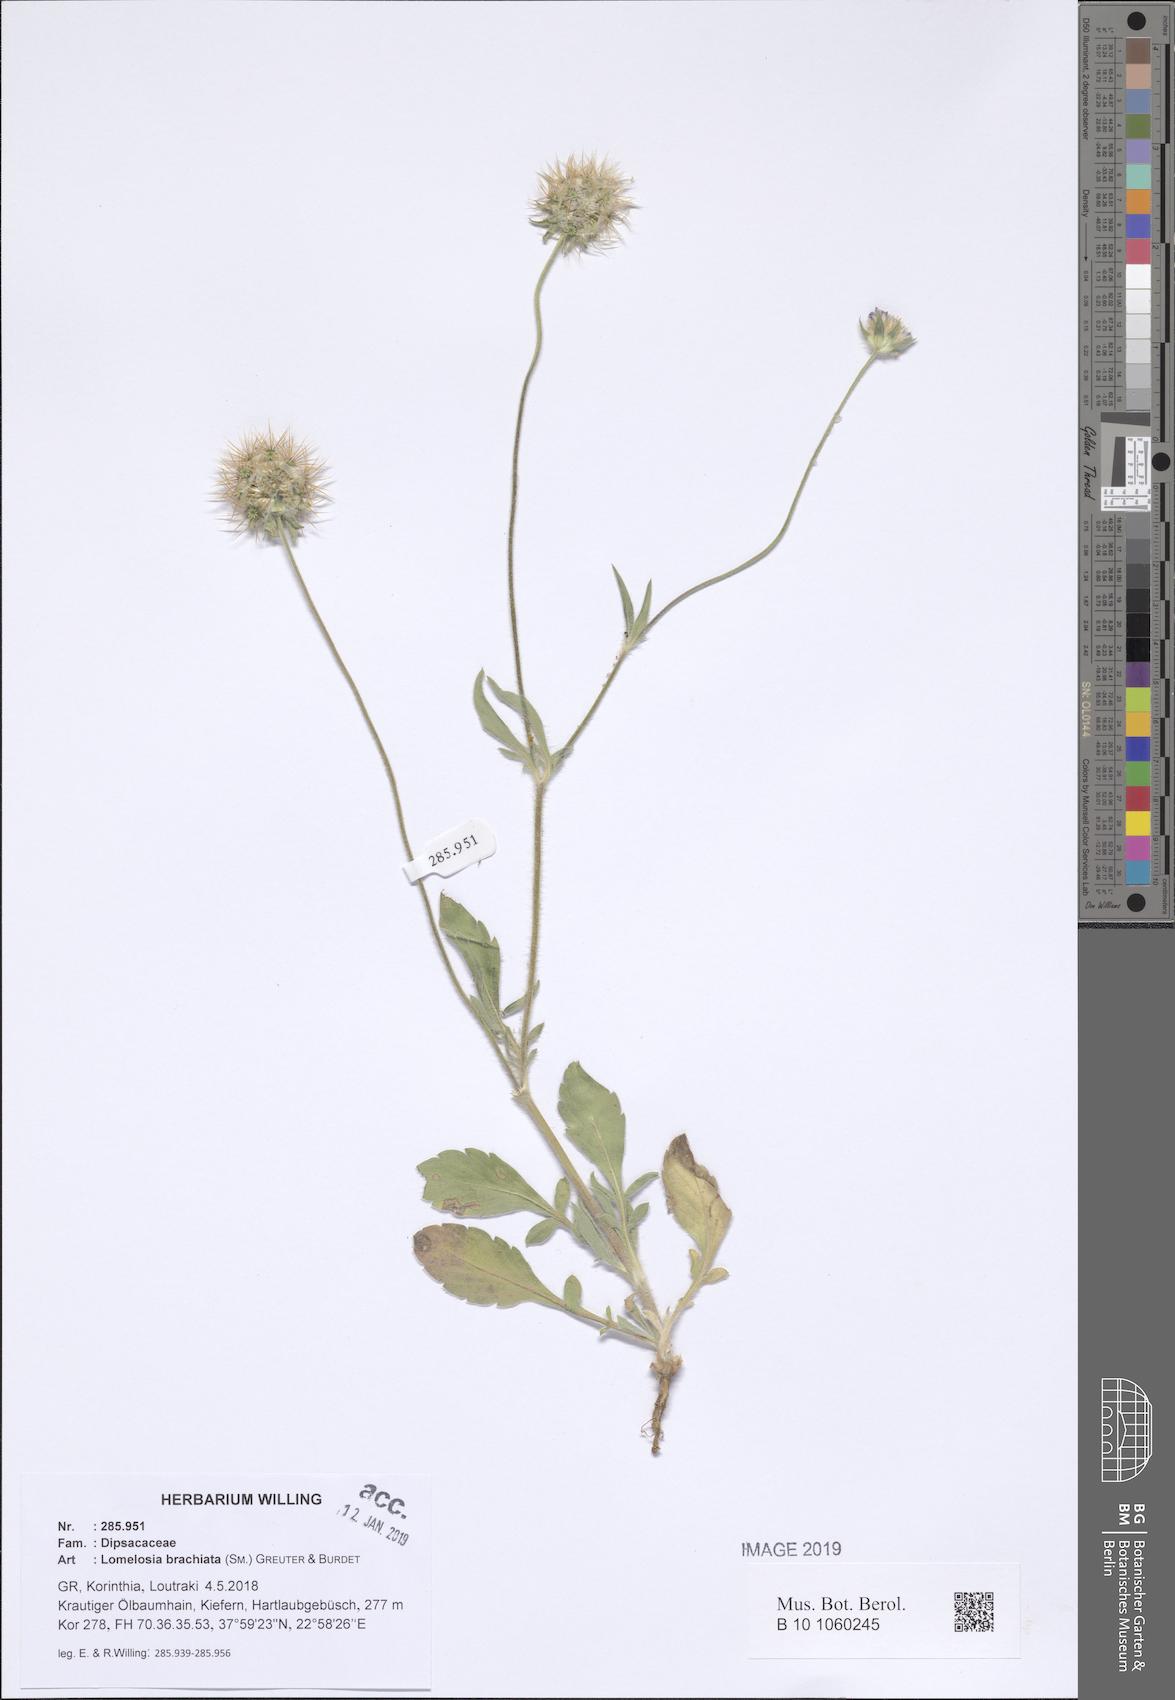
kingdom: Plantae
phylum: Tracheophyta
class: Magnoliopsida
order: Dipsacales
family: Caprifoliaceae
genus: Lomelosia
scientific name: Lomelosia brachiata
